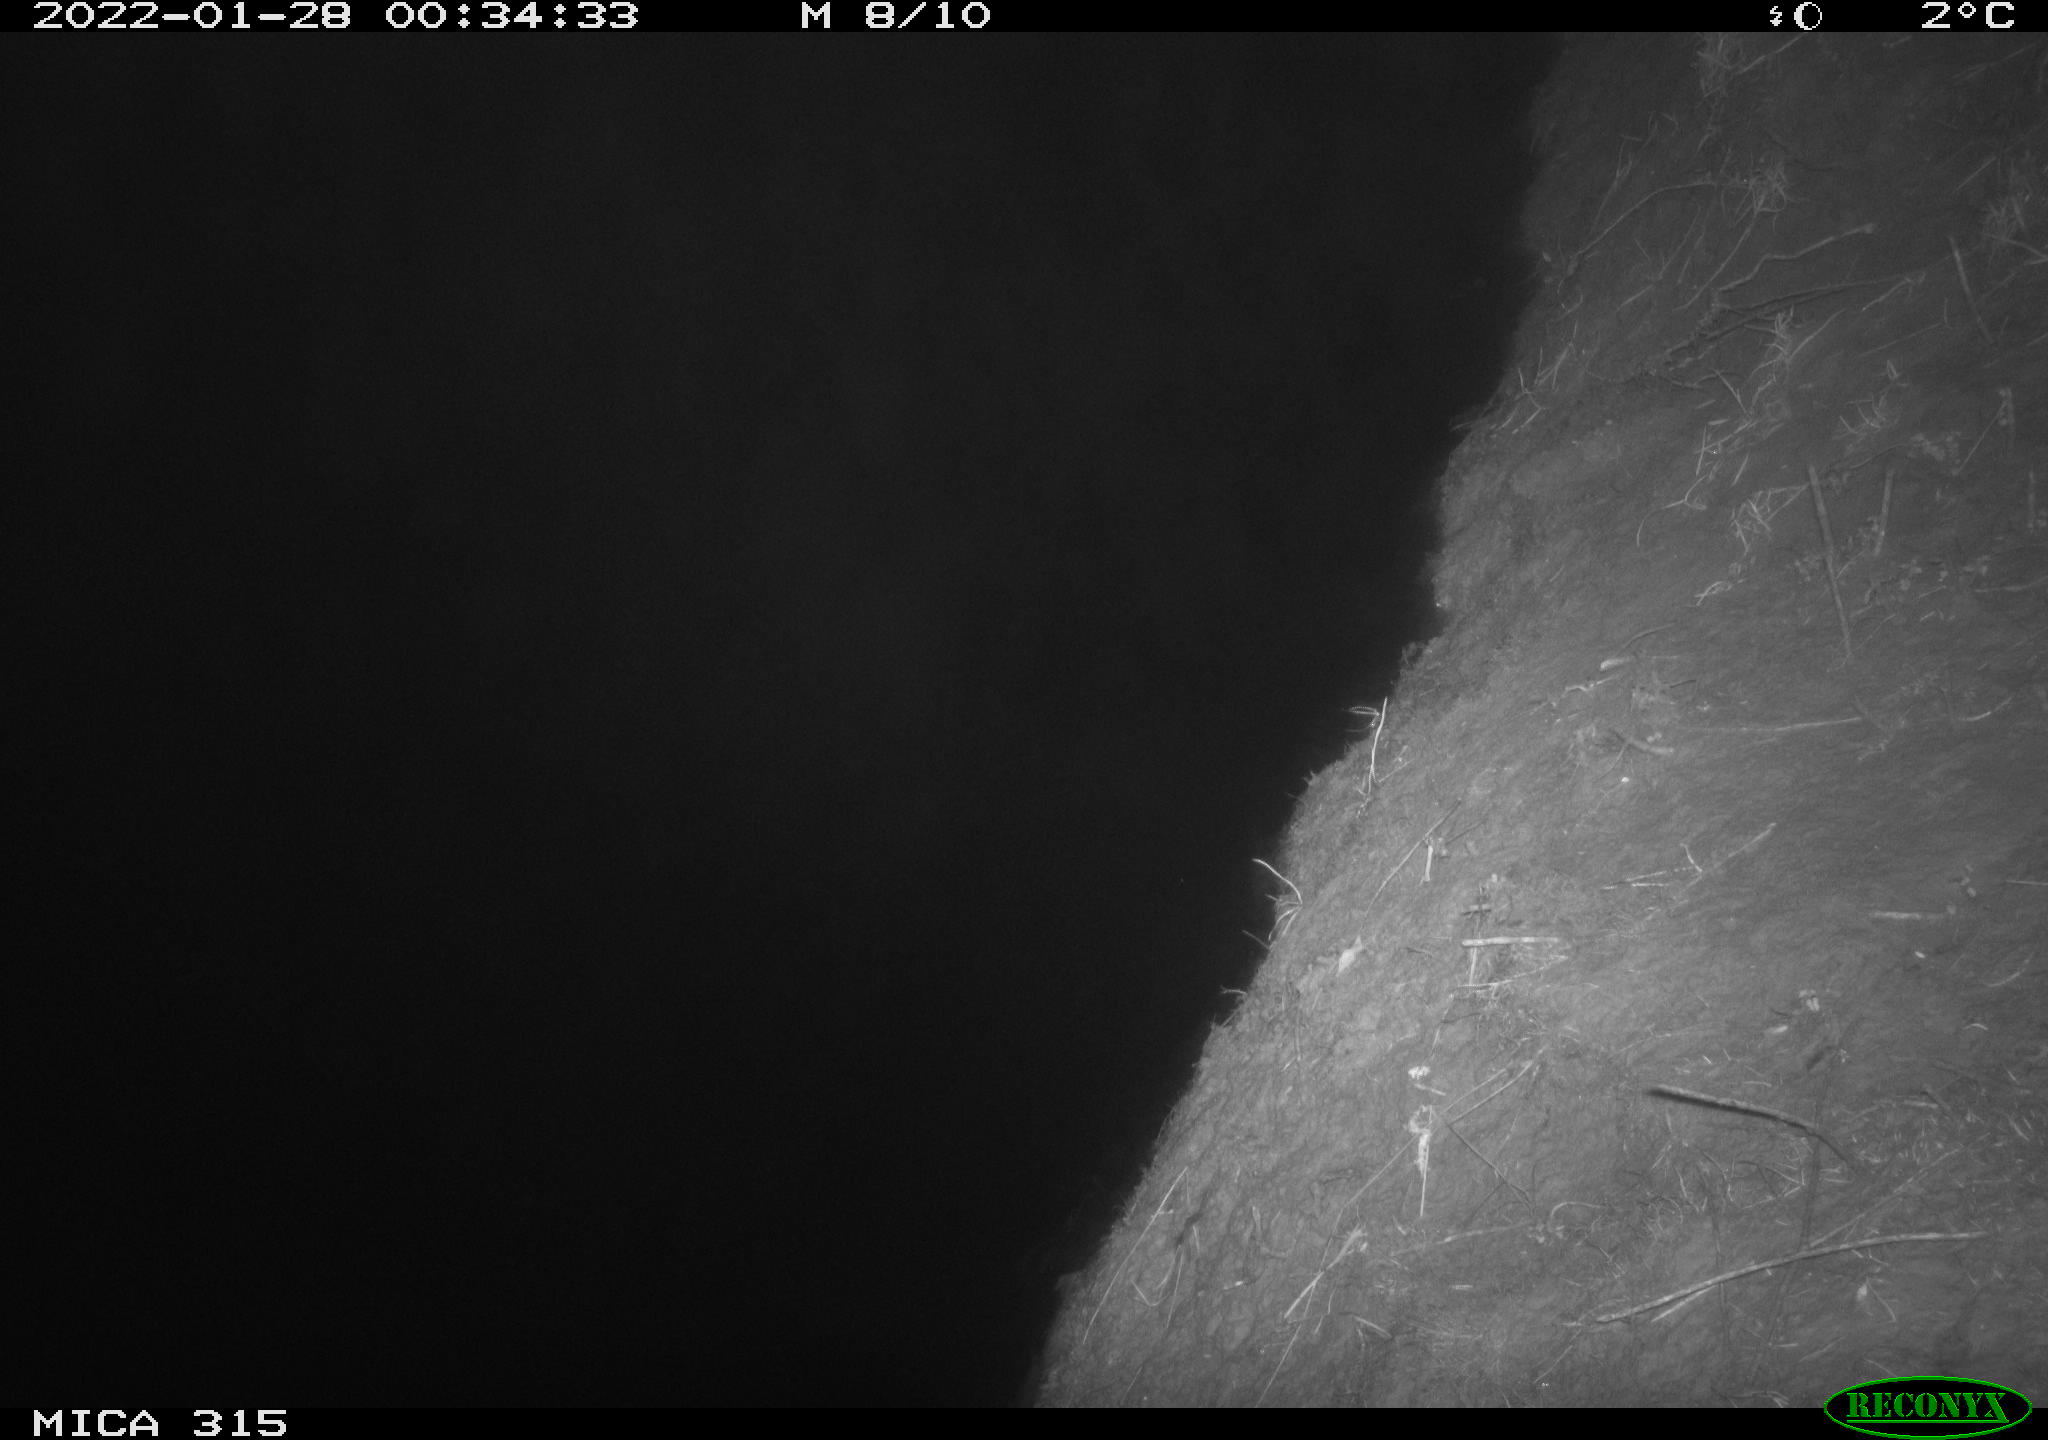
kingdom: Animalia
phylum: Chordata
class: Mammalia
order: Rodentia
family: Muridae
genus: Rattus
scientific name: Rattus norvegicus
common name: Brown rat
